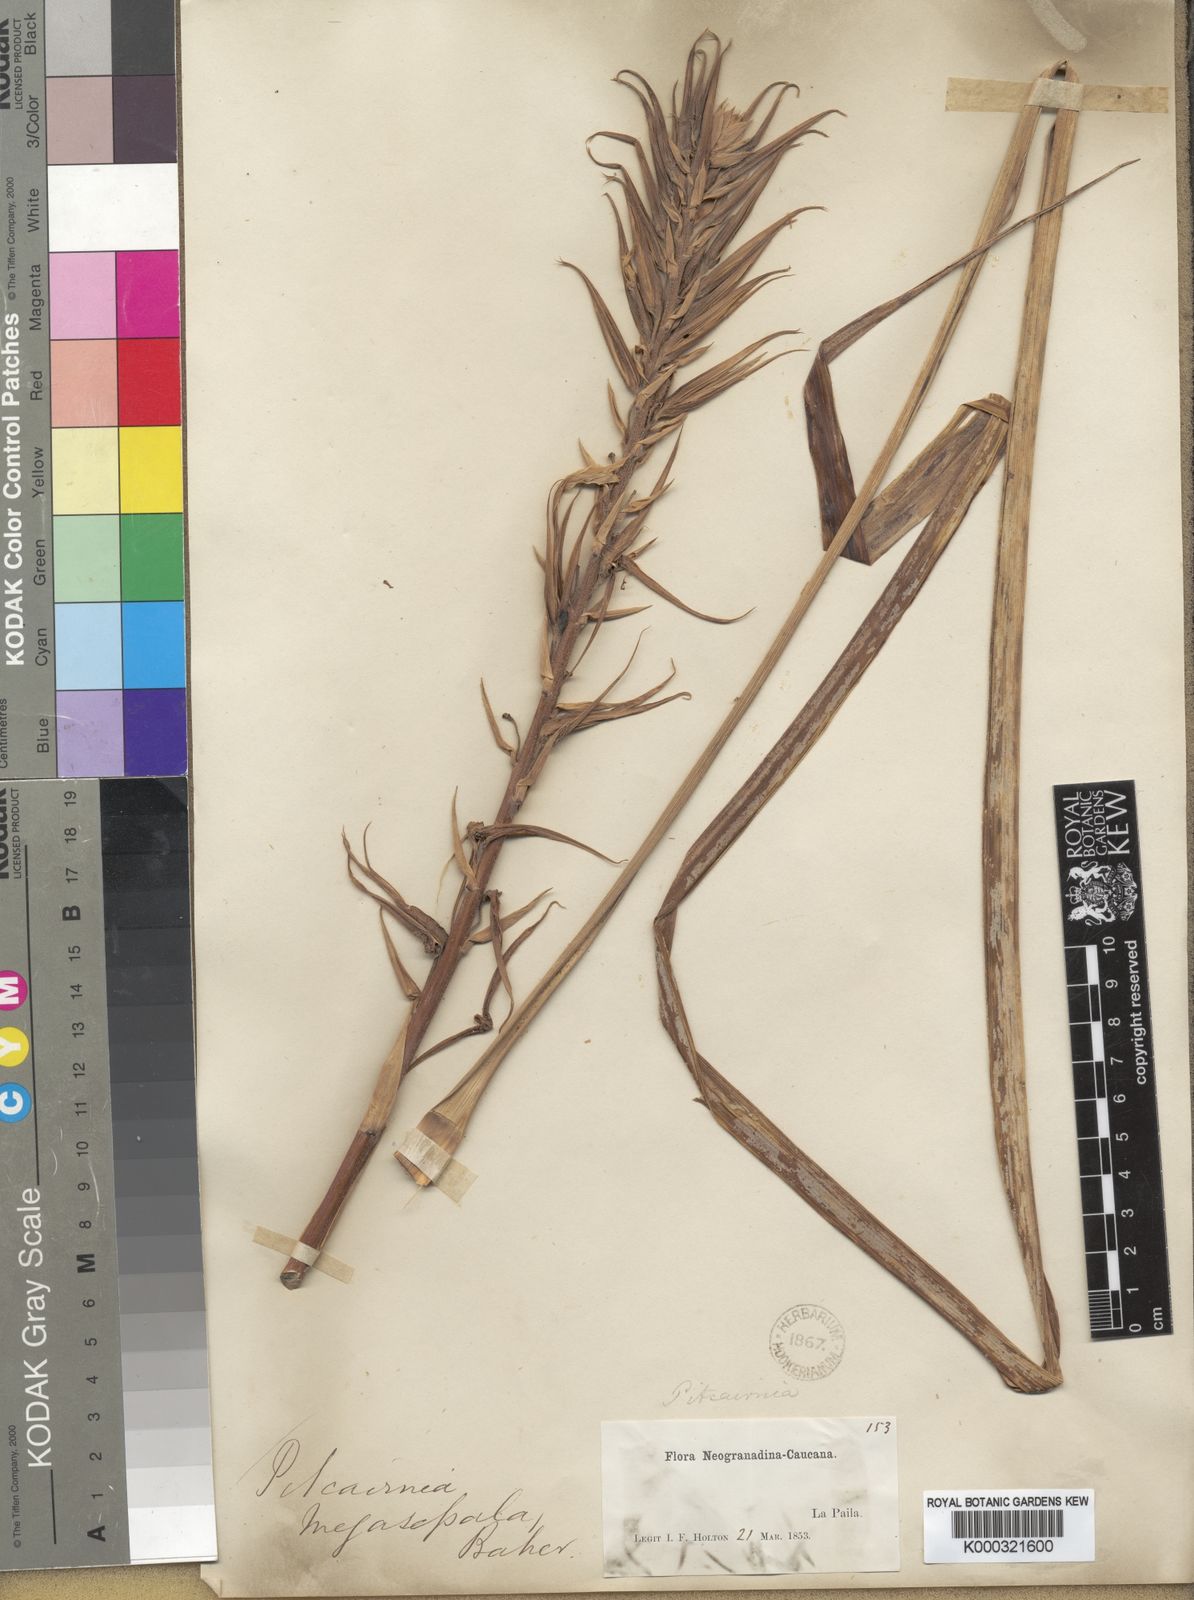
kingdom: Plantae
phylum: Tracheophyta
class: Liliopsida
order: Poales
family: Bromeliaceae
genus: Pitcairnia
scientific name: Pitcairnia megasepala
